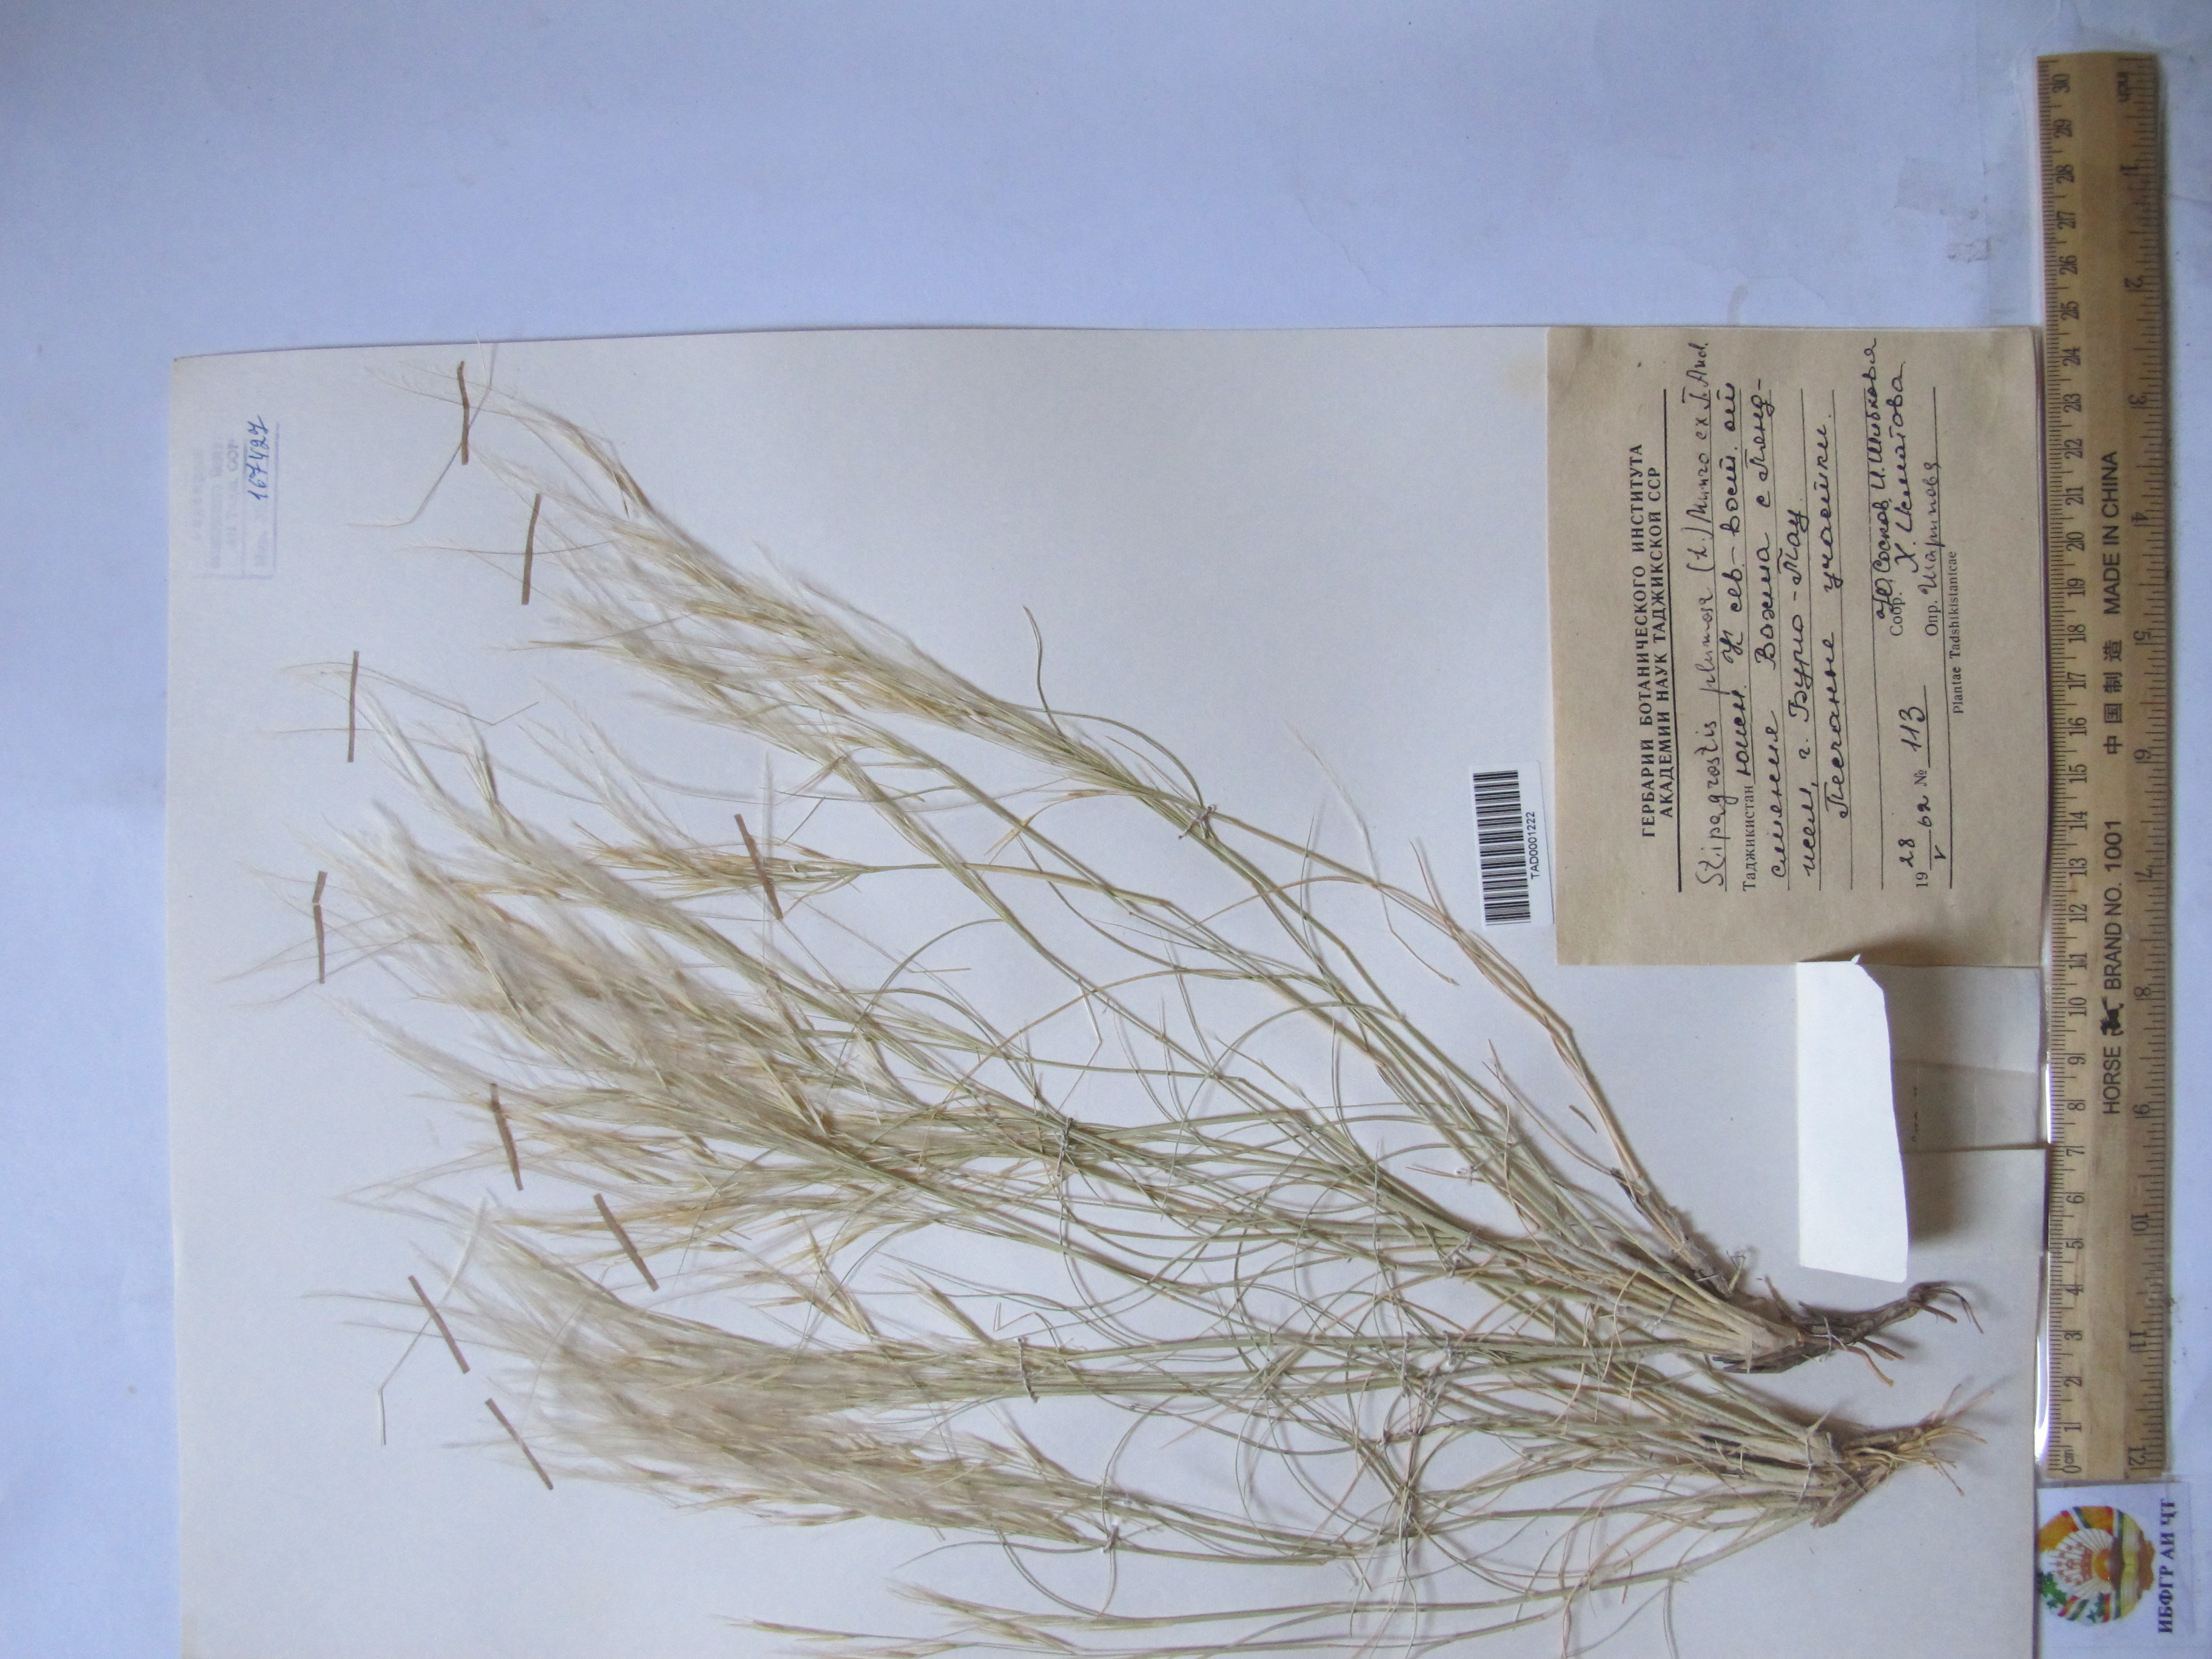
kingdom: Plantae
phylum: Tracheophyta
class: Liliopsida
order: Poales
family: Poaceae
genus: Stipagrostis
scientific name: Stipagrostis plumosa
